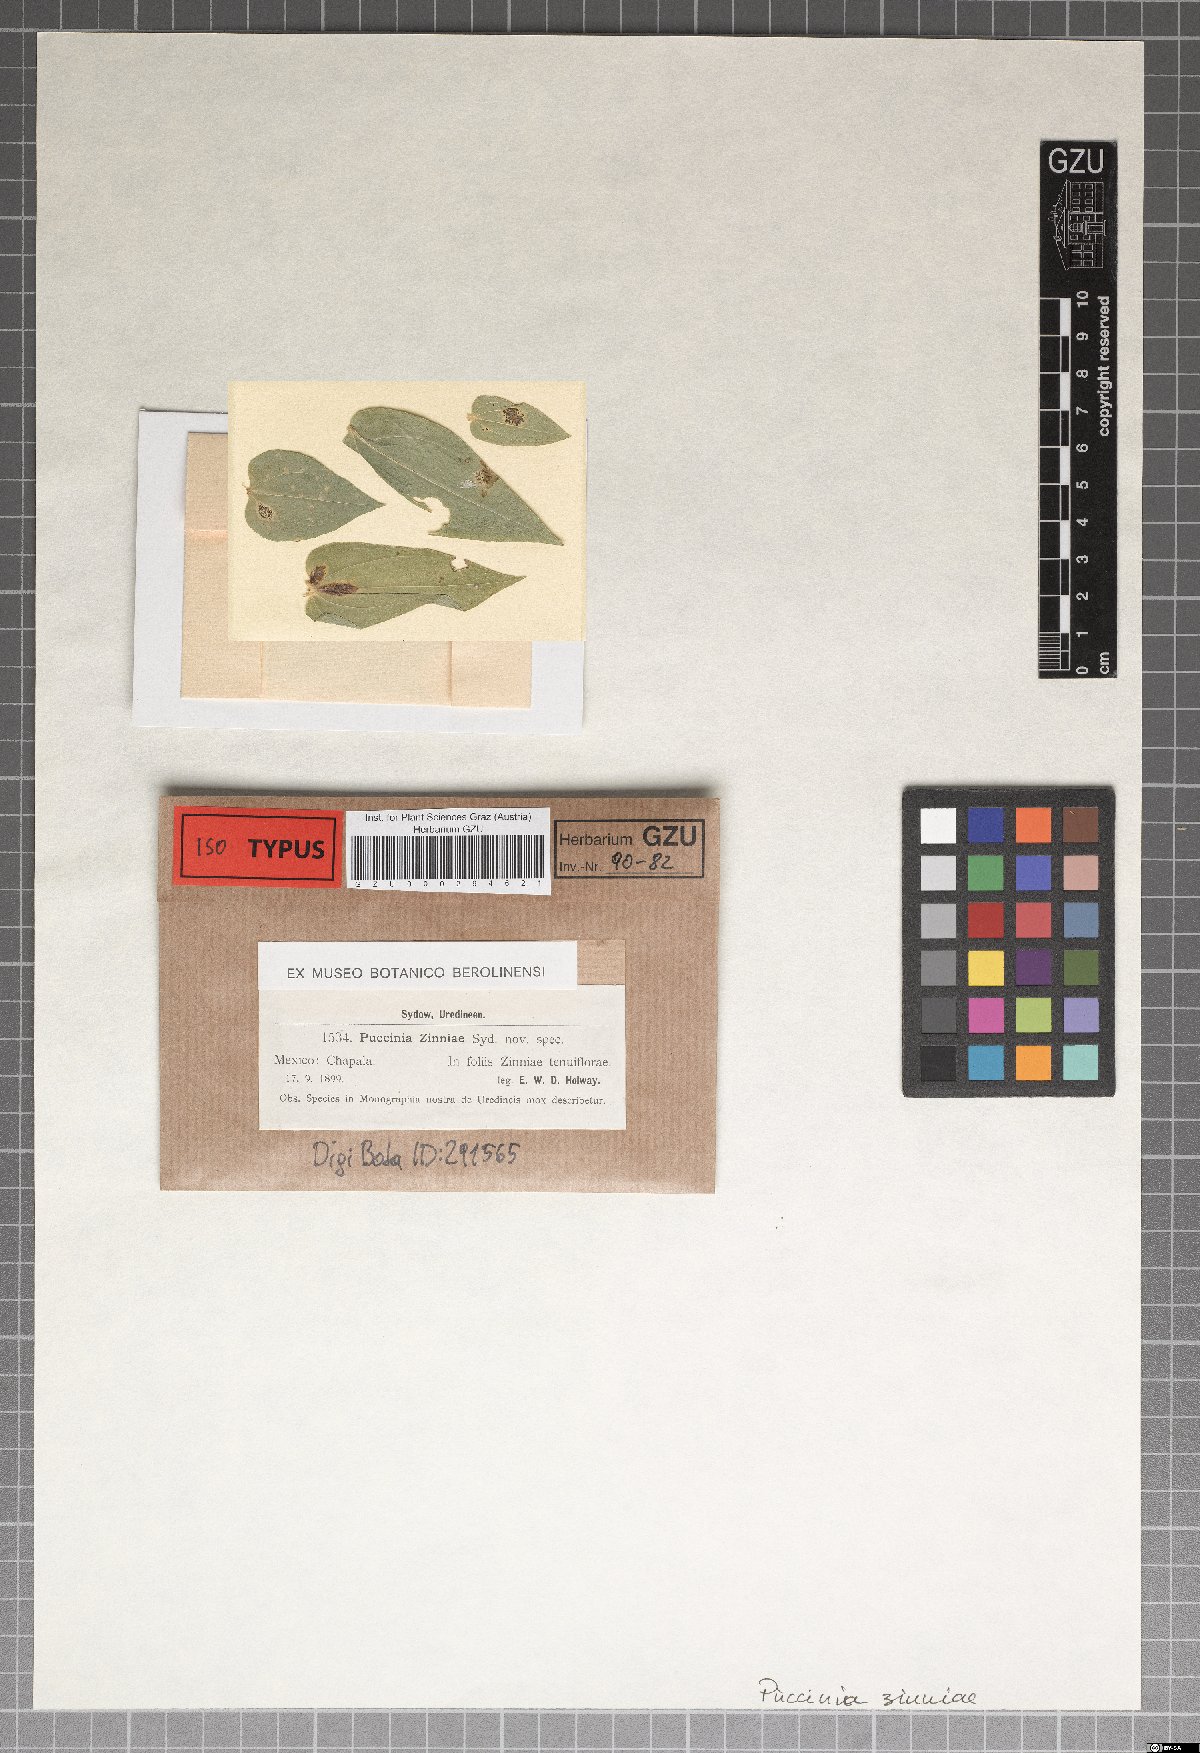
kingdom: Fungi
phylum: Basidiomycota
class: Pucciniomycetes
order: Pucciniales
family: Pucciniaceae
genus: Puccinia
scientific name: Puccinia zinniae
